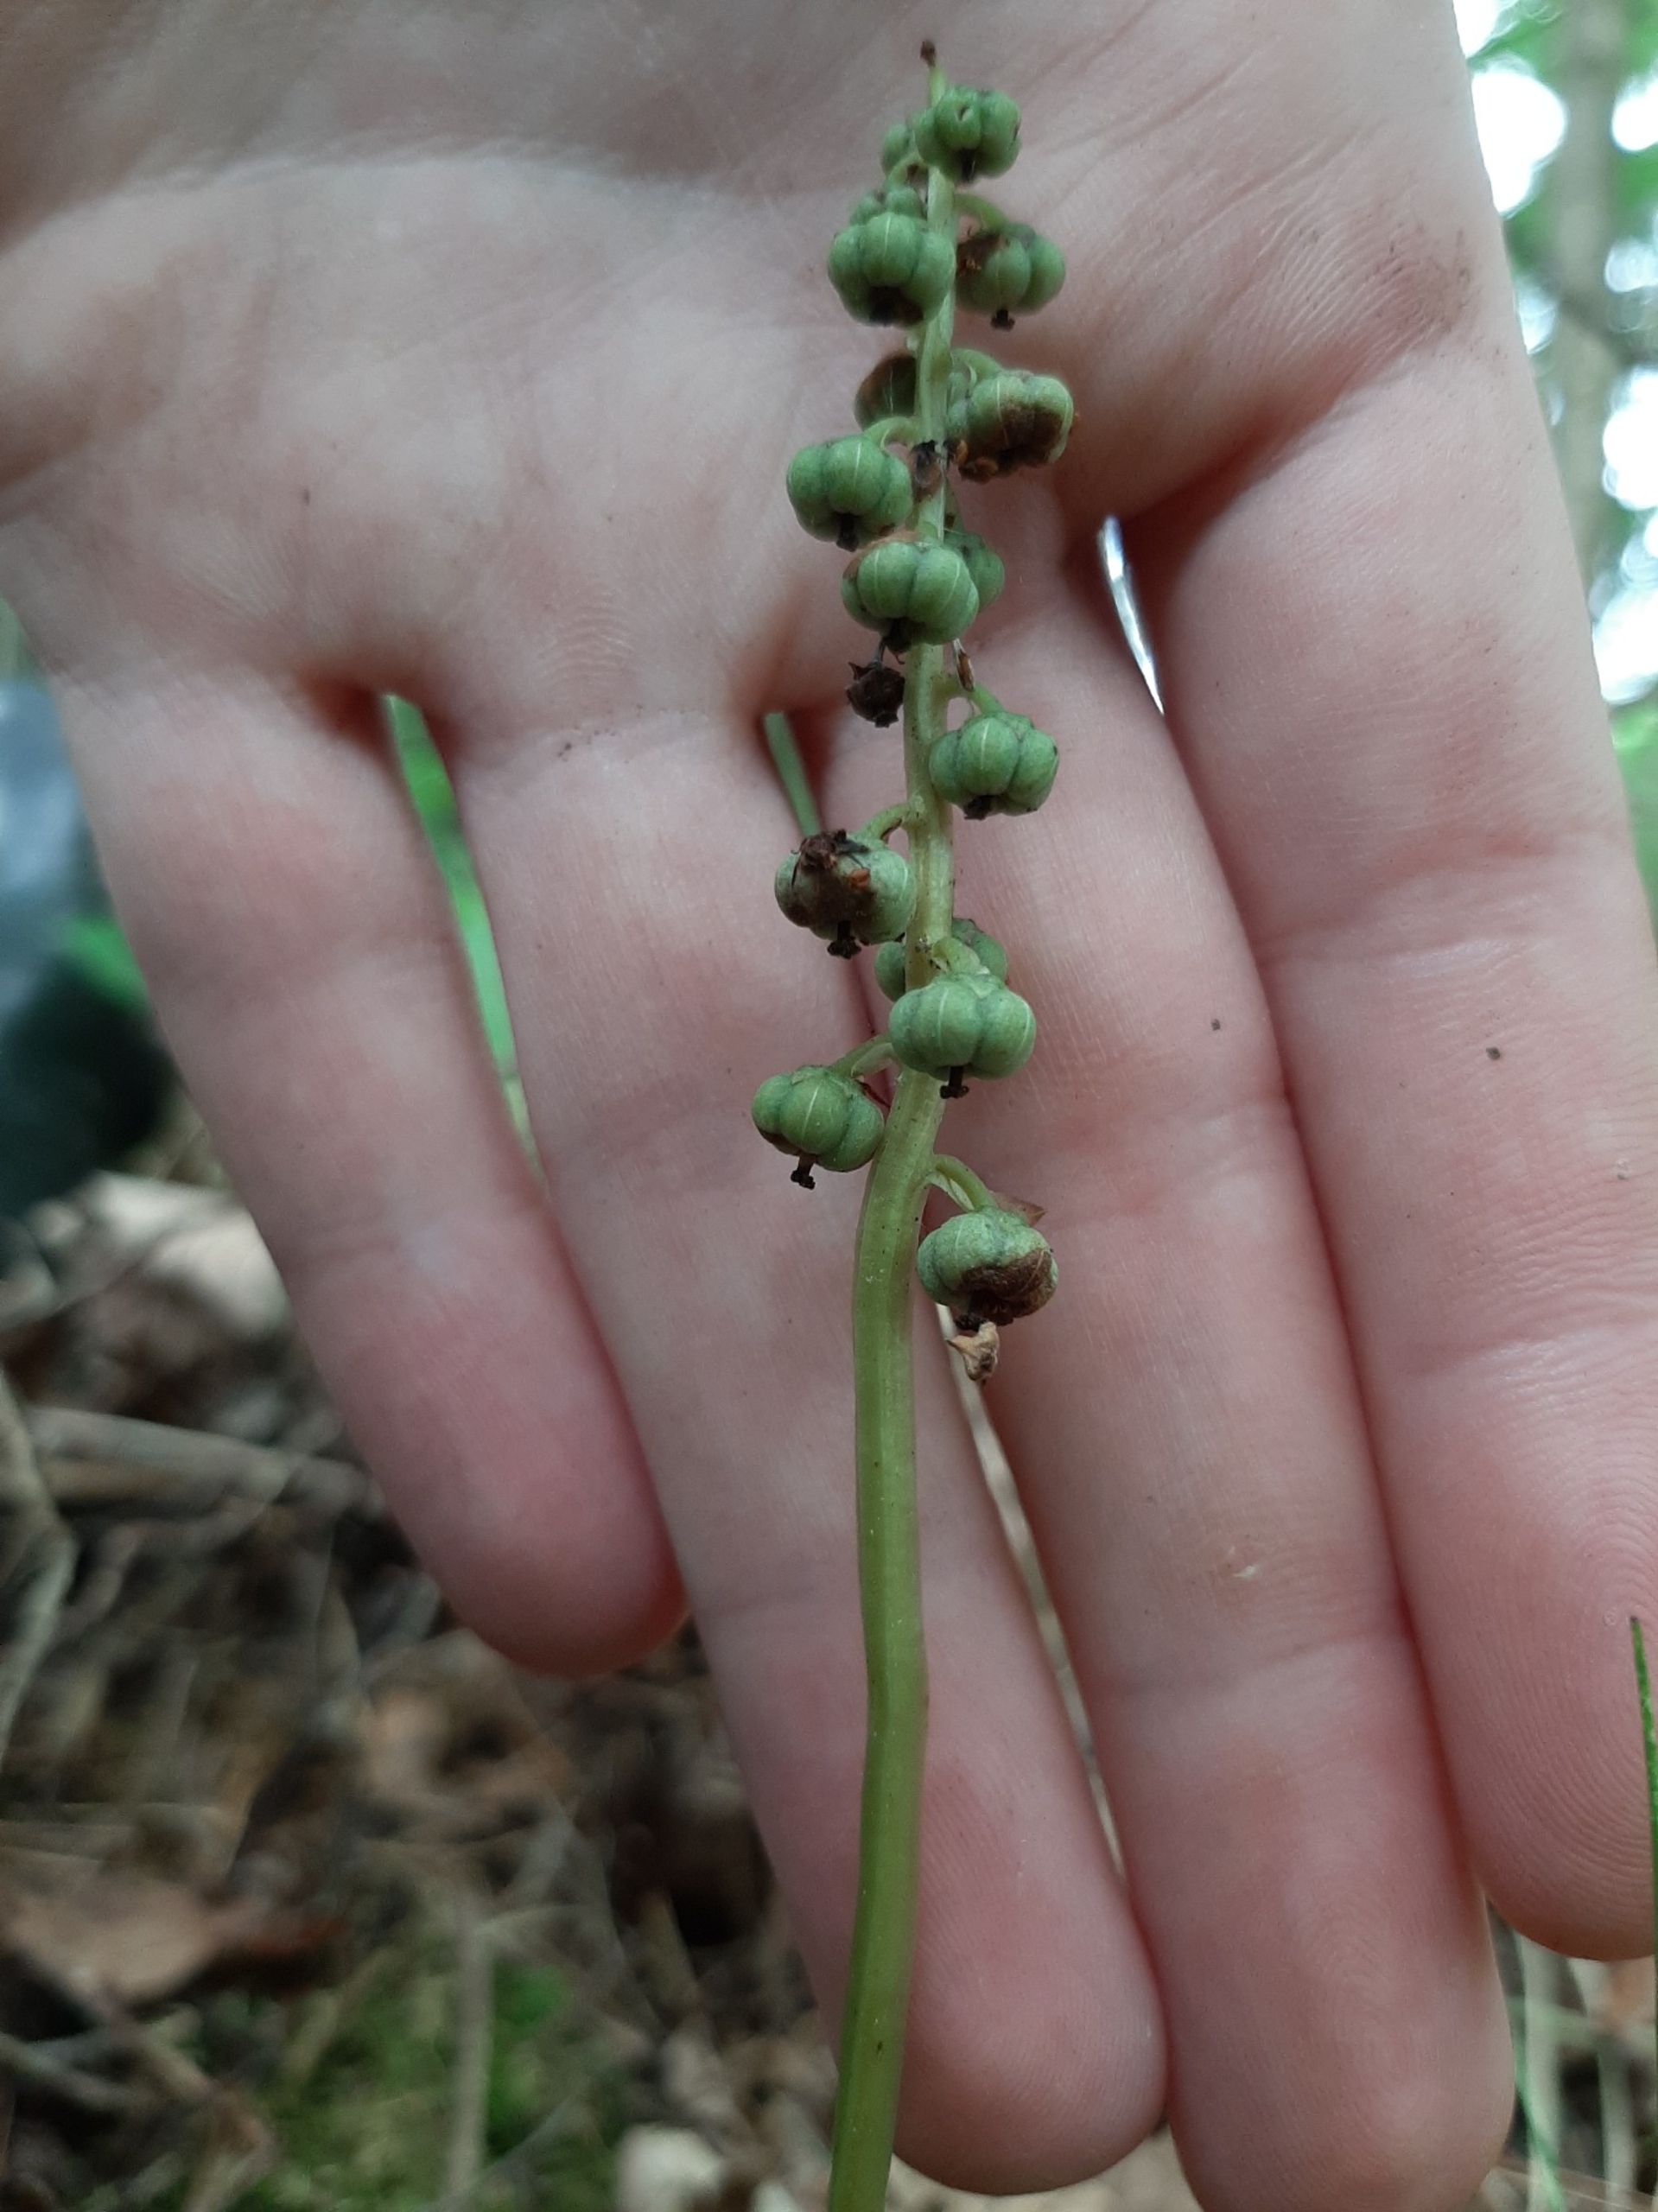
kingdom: Plantae
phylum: Tracheophyta
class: Magnoliopsida
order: Ericales
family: Ericaceae
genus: Pyrola
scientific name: Pyrola minor
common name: Liden vintergrøn
